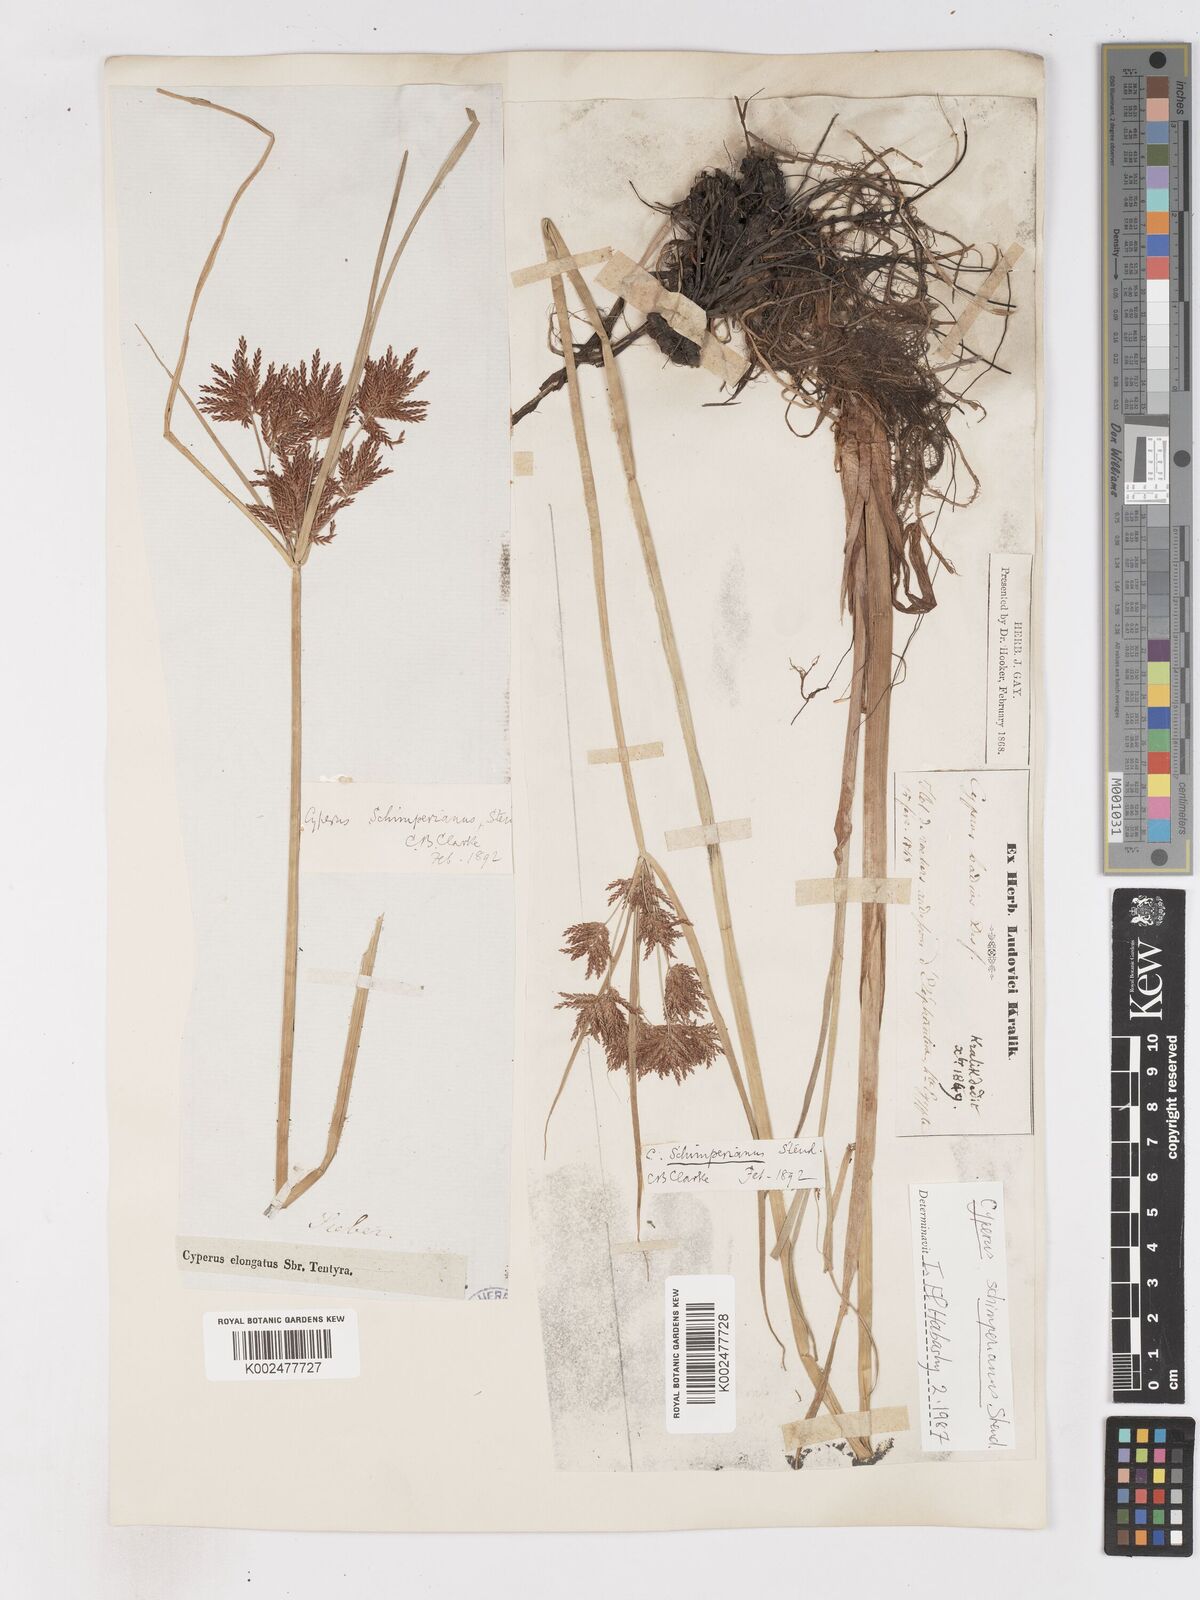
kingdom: Plantae
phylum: Tracheophyta
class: Liliopsida
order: Poales
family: Cyperaceae
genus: Cyperus
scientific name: Cyperus schimperianus
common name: Schimper flatsedge
